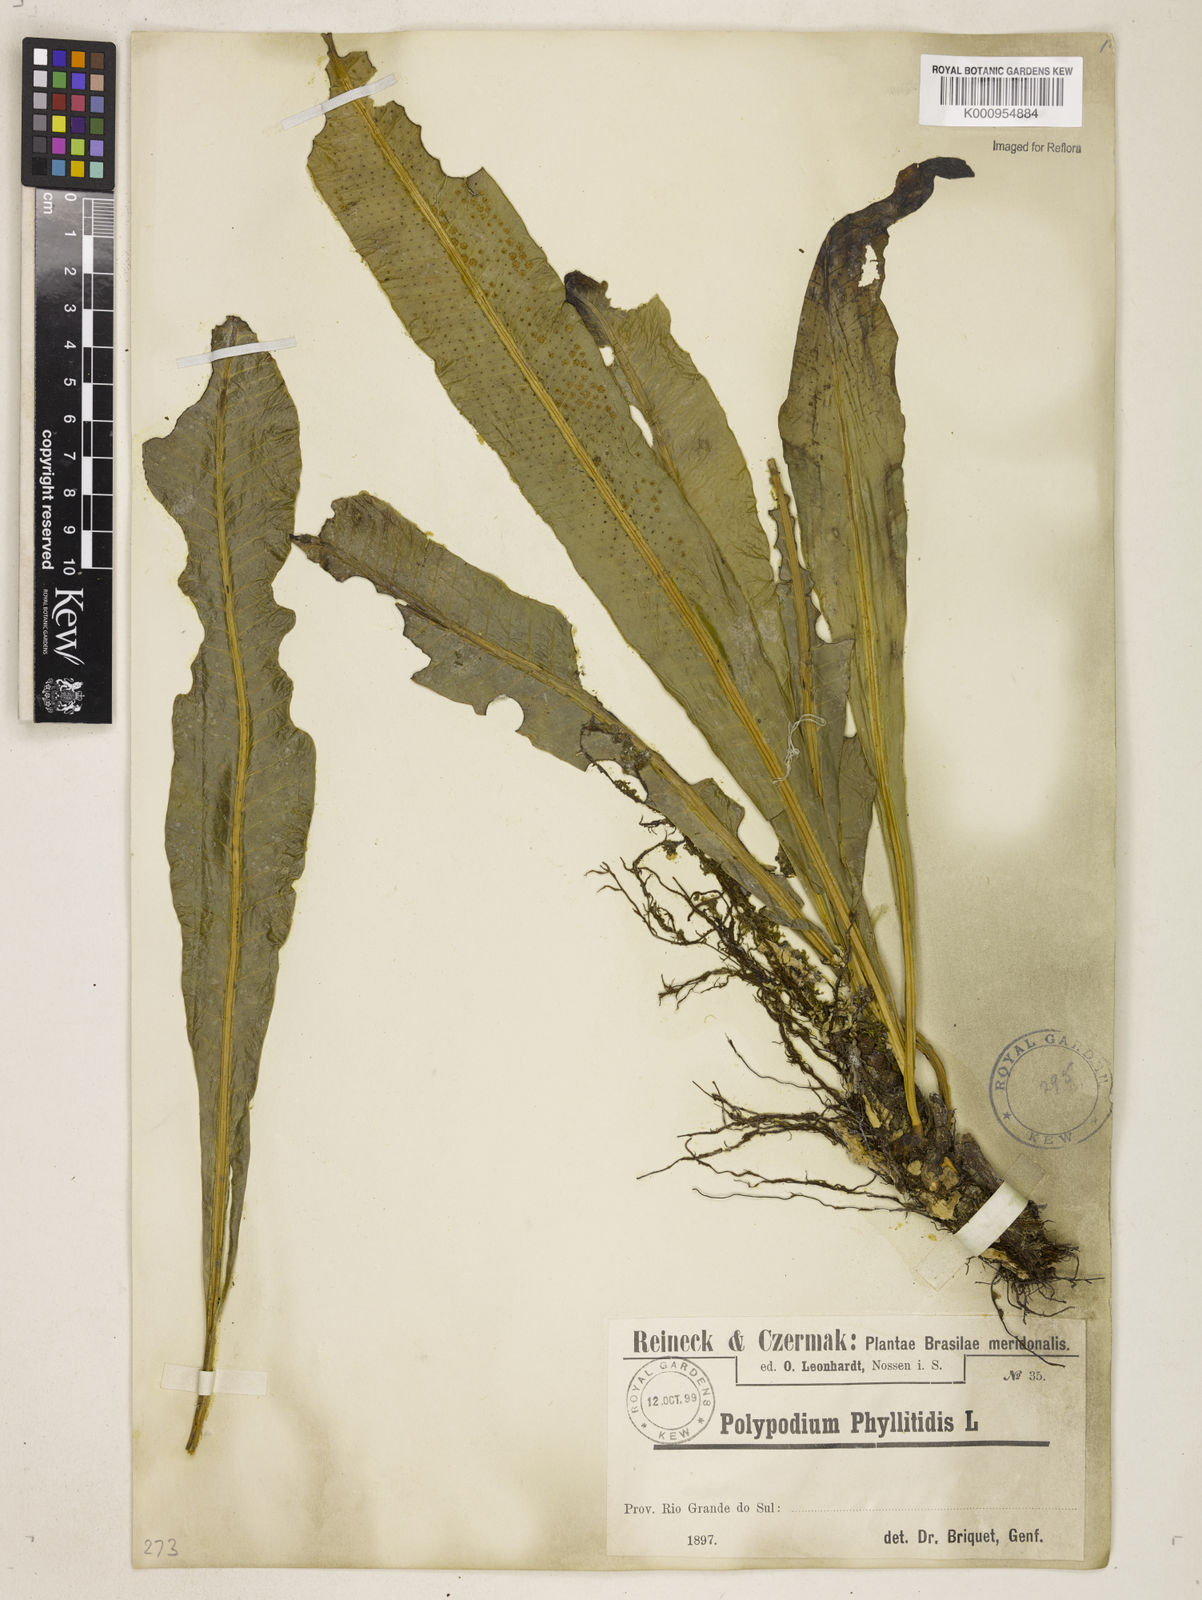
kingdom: Plantae
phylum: Tracheophyta
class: Polypodiopsida
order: Polypodiales
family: Polypodiaceae
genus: Campyloneurum
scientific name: Campyloneurum phyllitidis
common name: Cow-tongue fern
